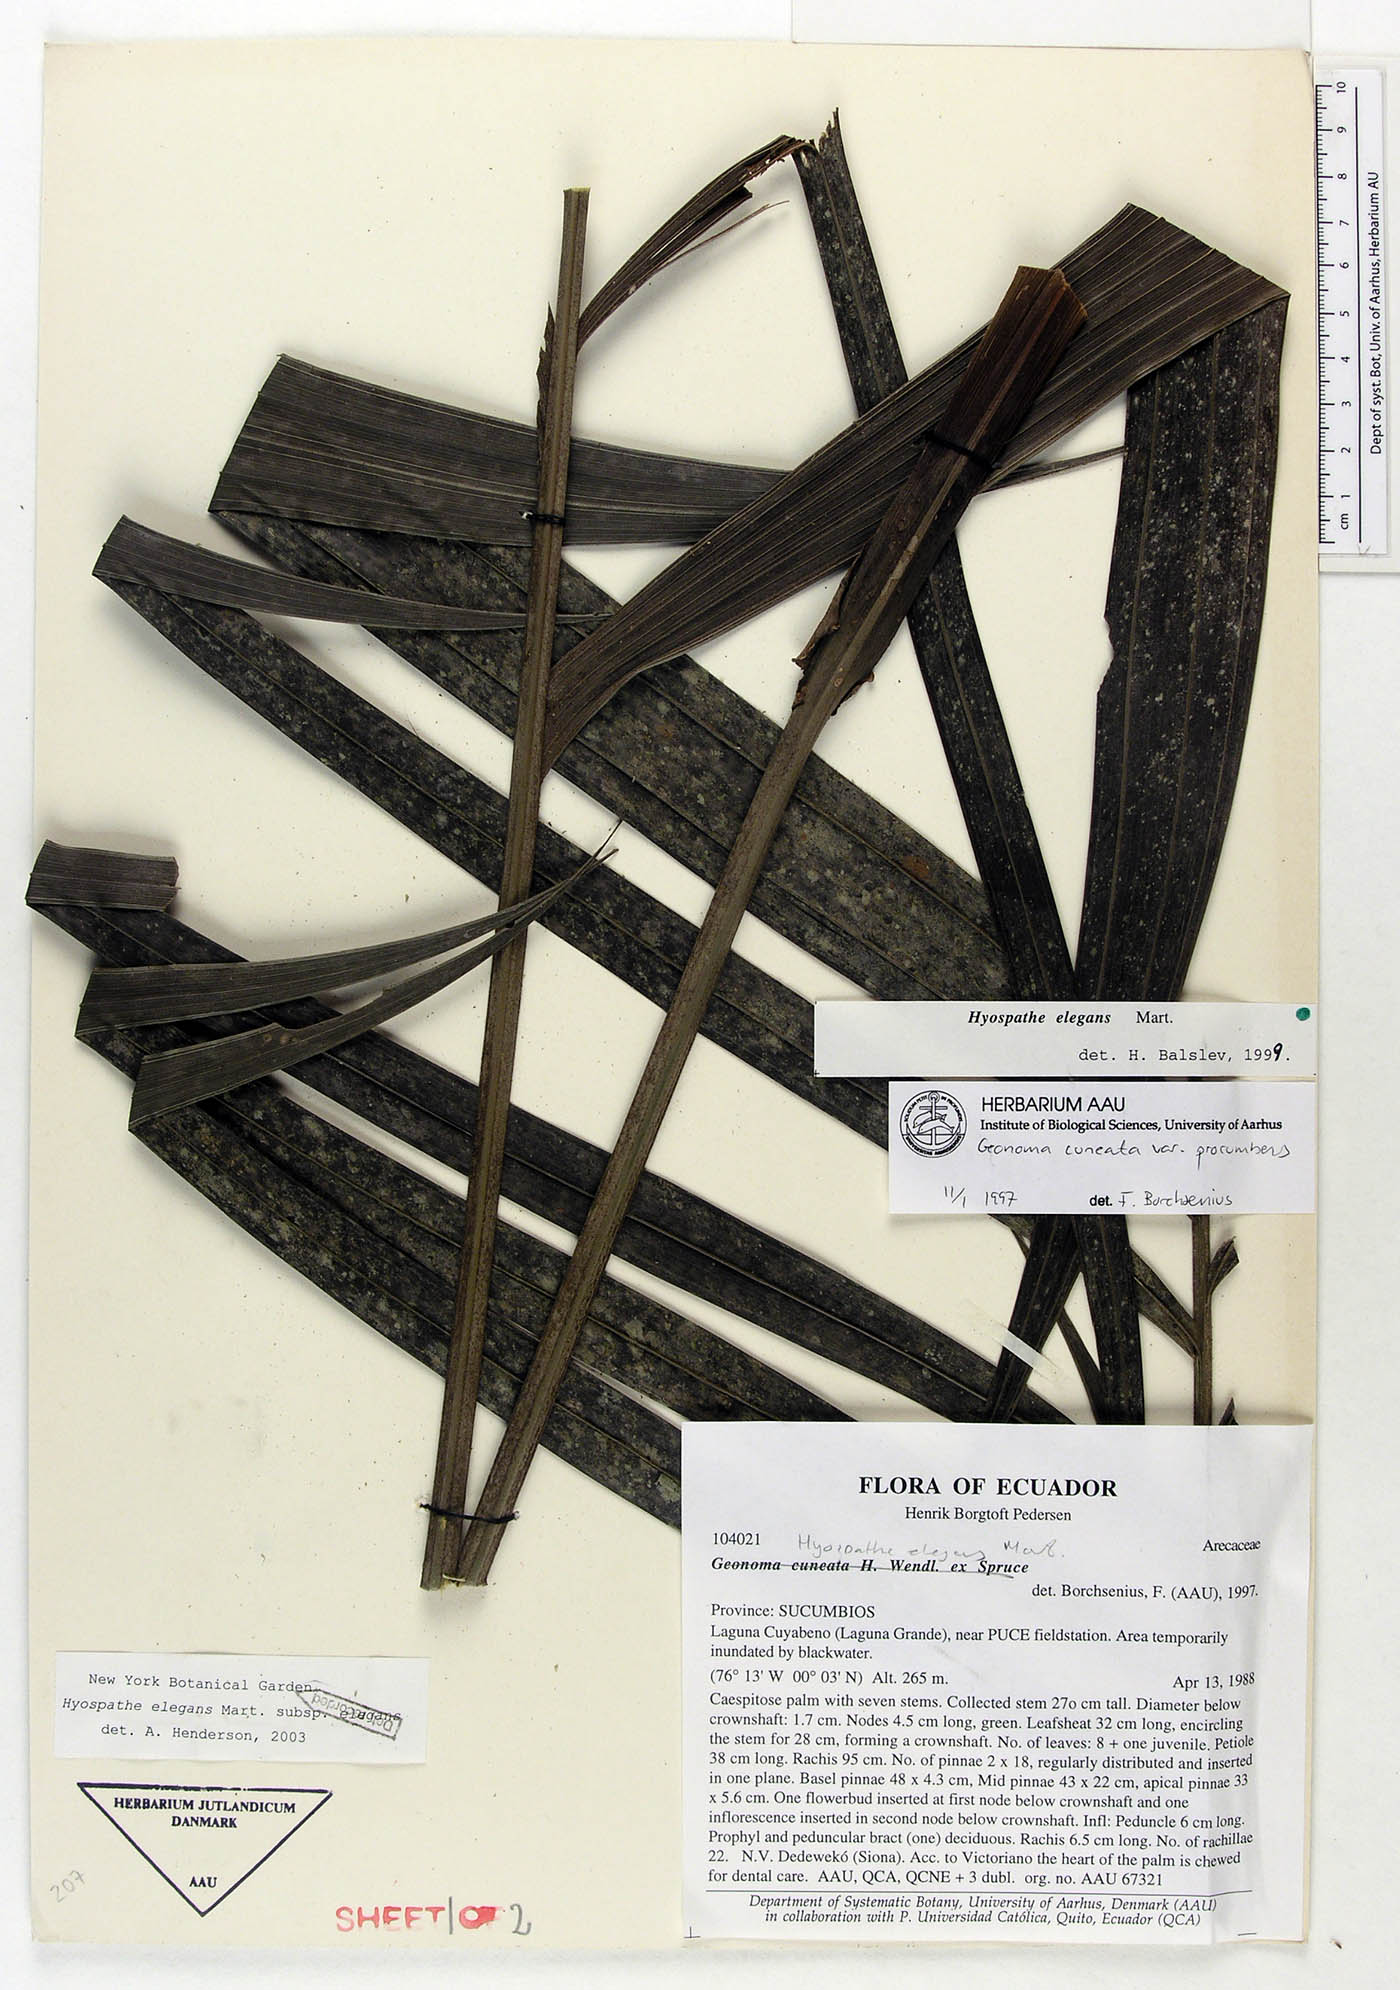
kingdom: Plantae
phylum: Tracheophyta
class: Liliopsida
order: Arecales
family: Arecaceae
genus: Hyospathe
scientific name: Hyospathe elegans
